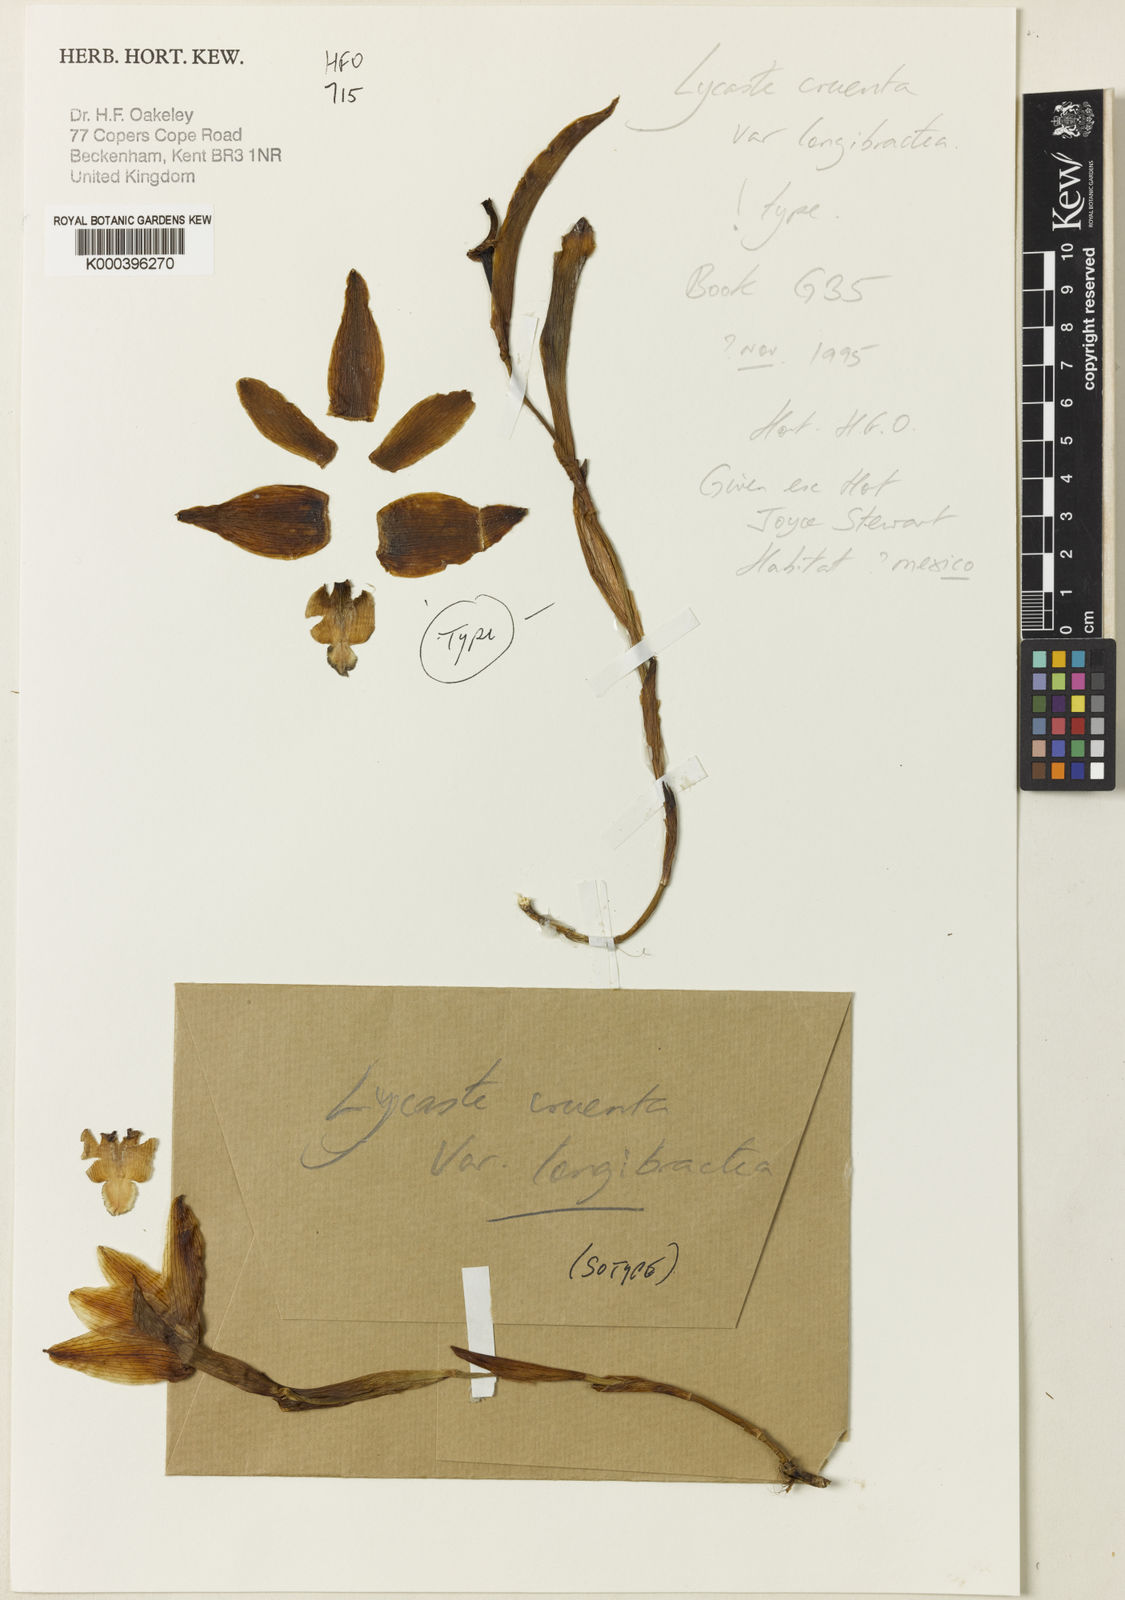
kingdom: Plantae
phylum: Tracheophyta
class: Liliopsida
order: Asparagales
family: Orchidaceae
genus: Lycaste
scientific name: Lycaste cruenta
